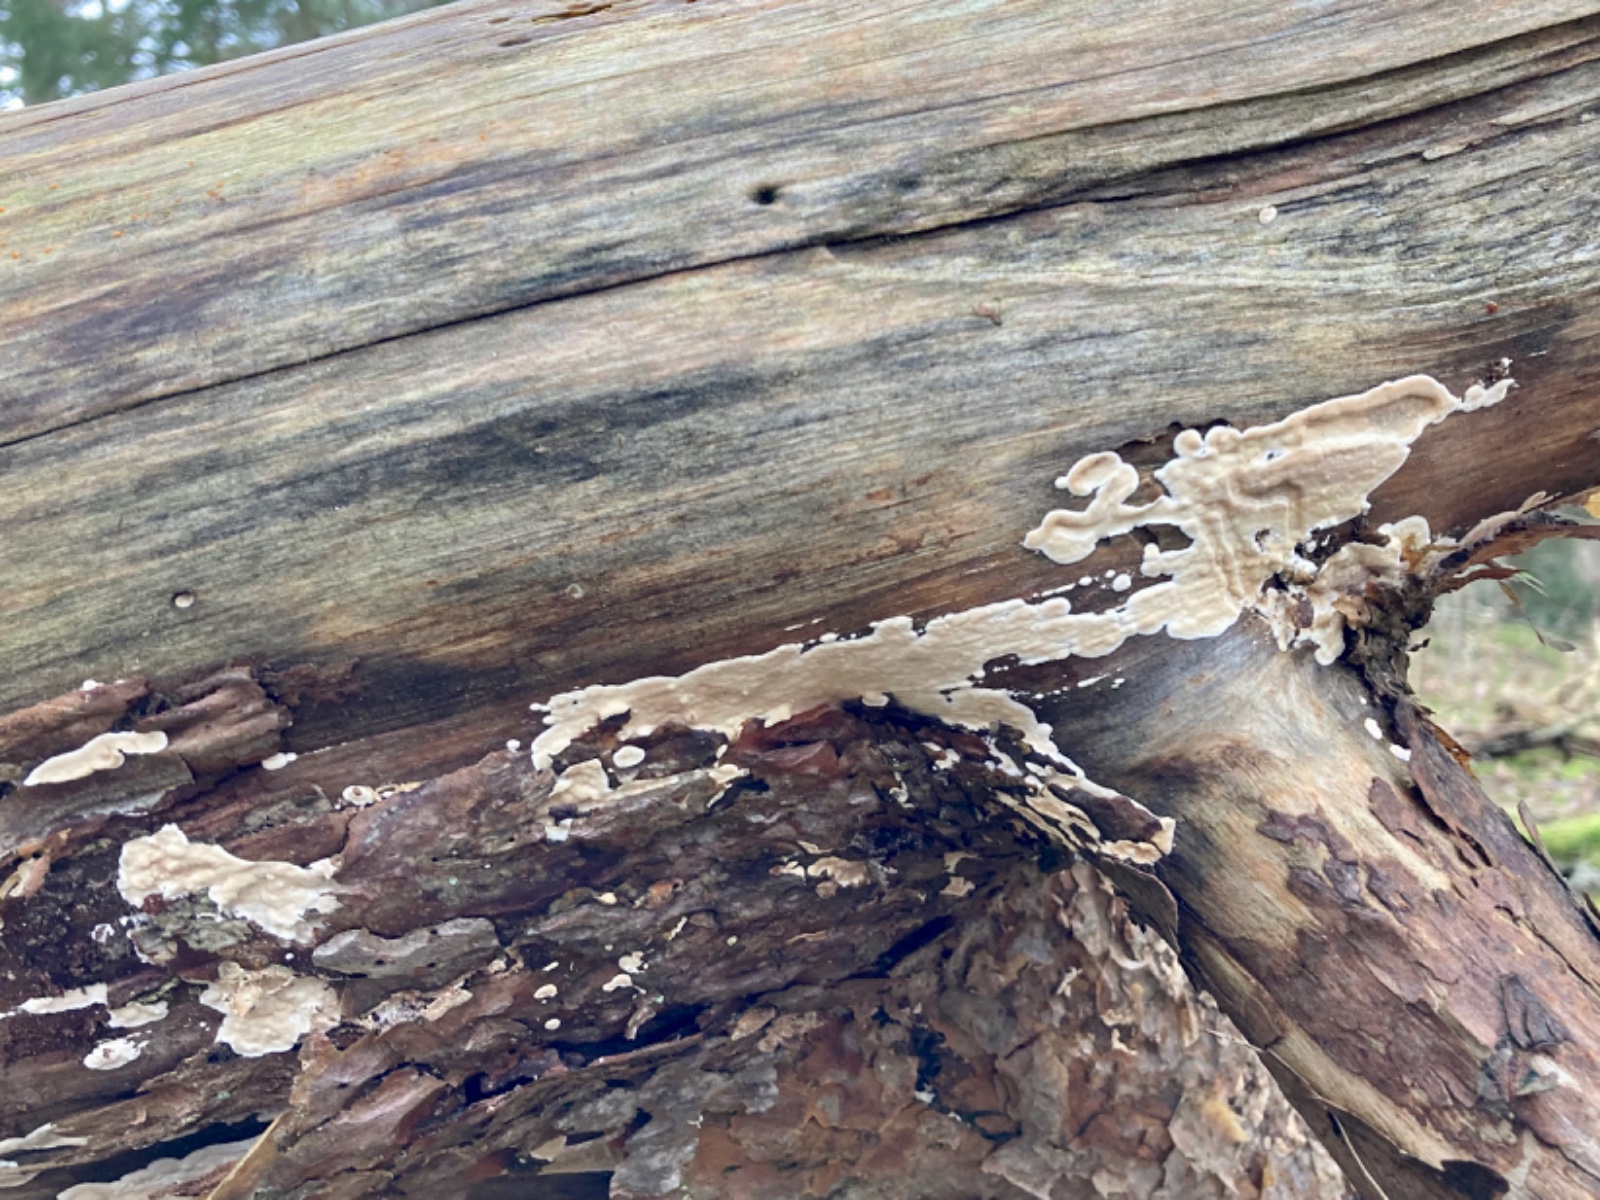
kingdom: Fungi
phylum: Basidiomycota
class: Agaricomycetes
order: Polyporales
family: Dacryobolaceae
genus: Dacryobolus
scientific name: Dacryobolus karstenii
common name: glat vulkanskorpe
